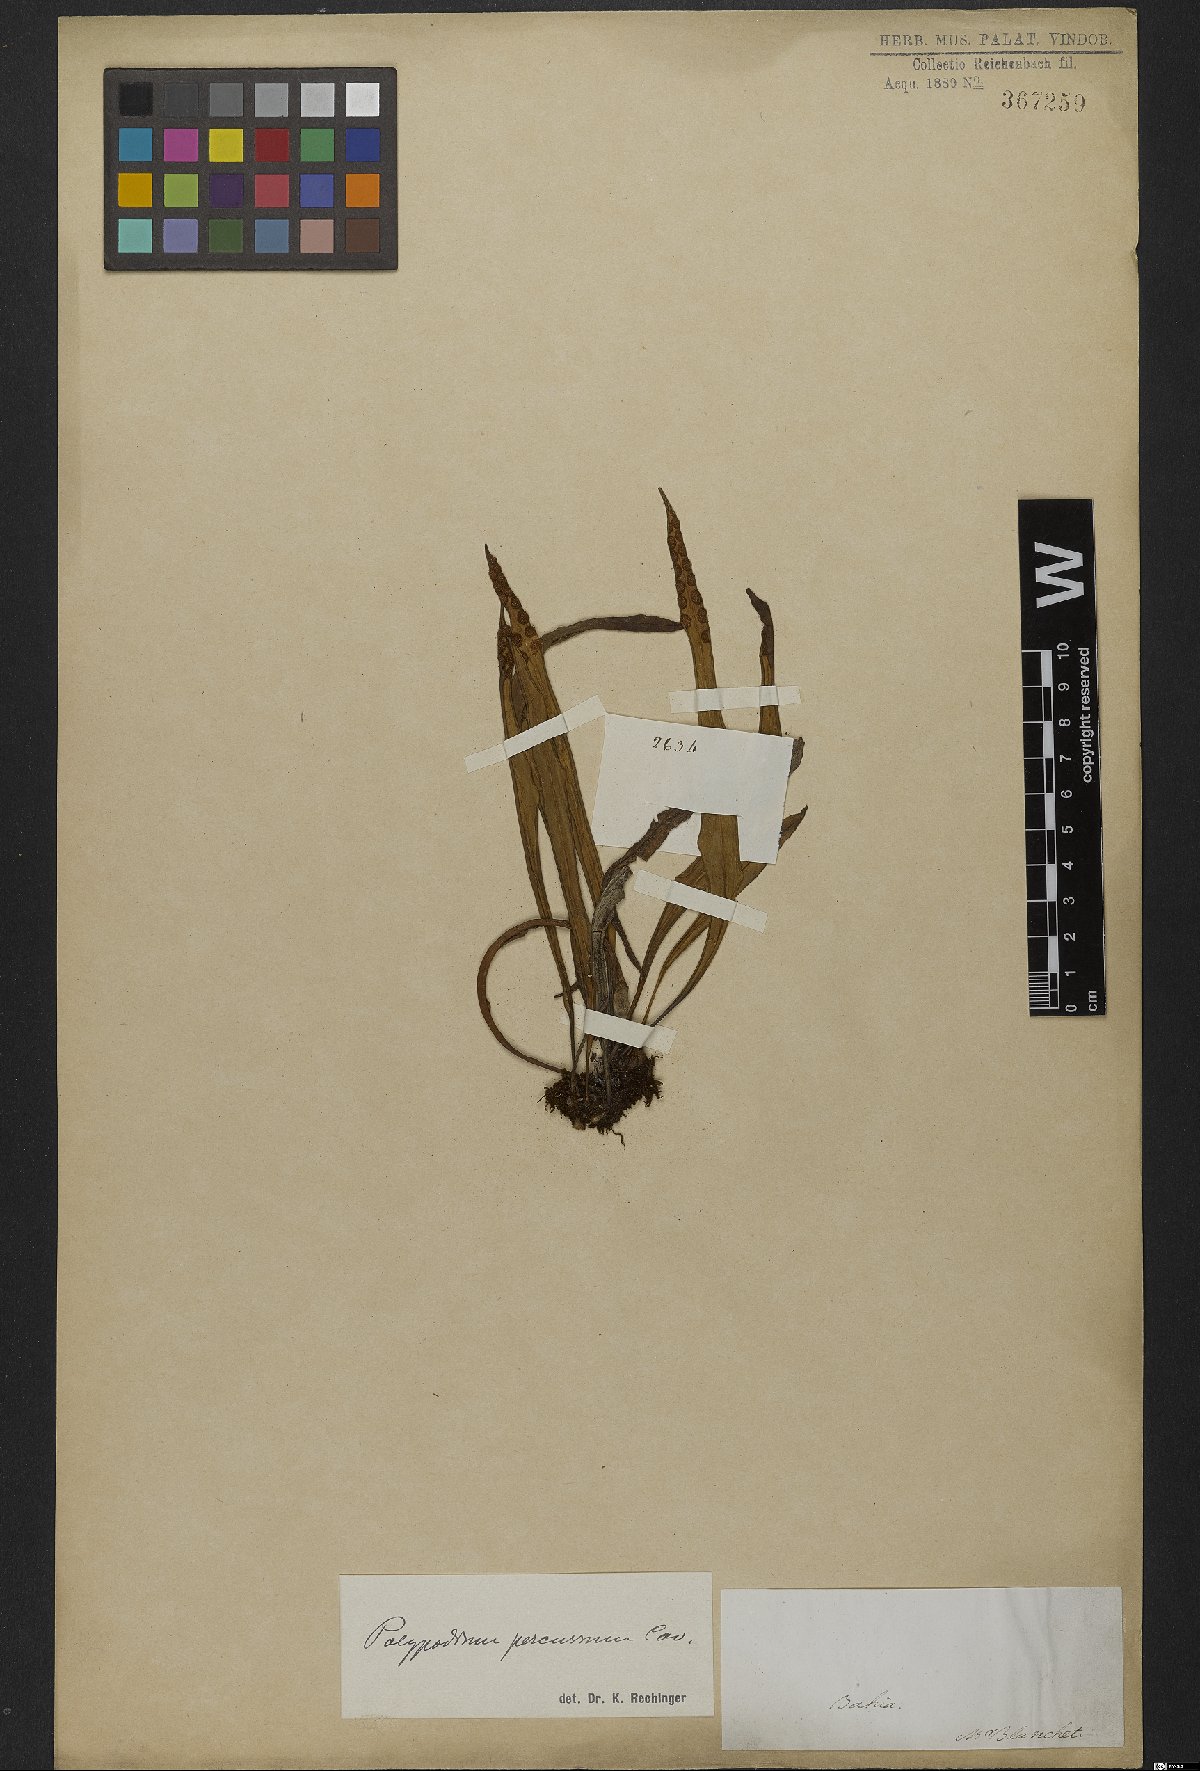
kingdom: Plantae
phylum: Tracheophyta
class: Polypodiopsida
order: Polypodiales
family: Polypodiaceae
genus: Microgramma
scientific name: Microgramma percussa
